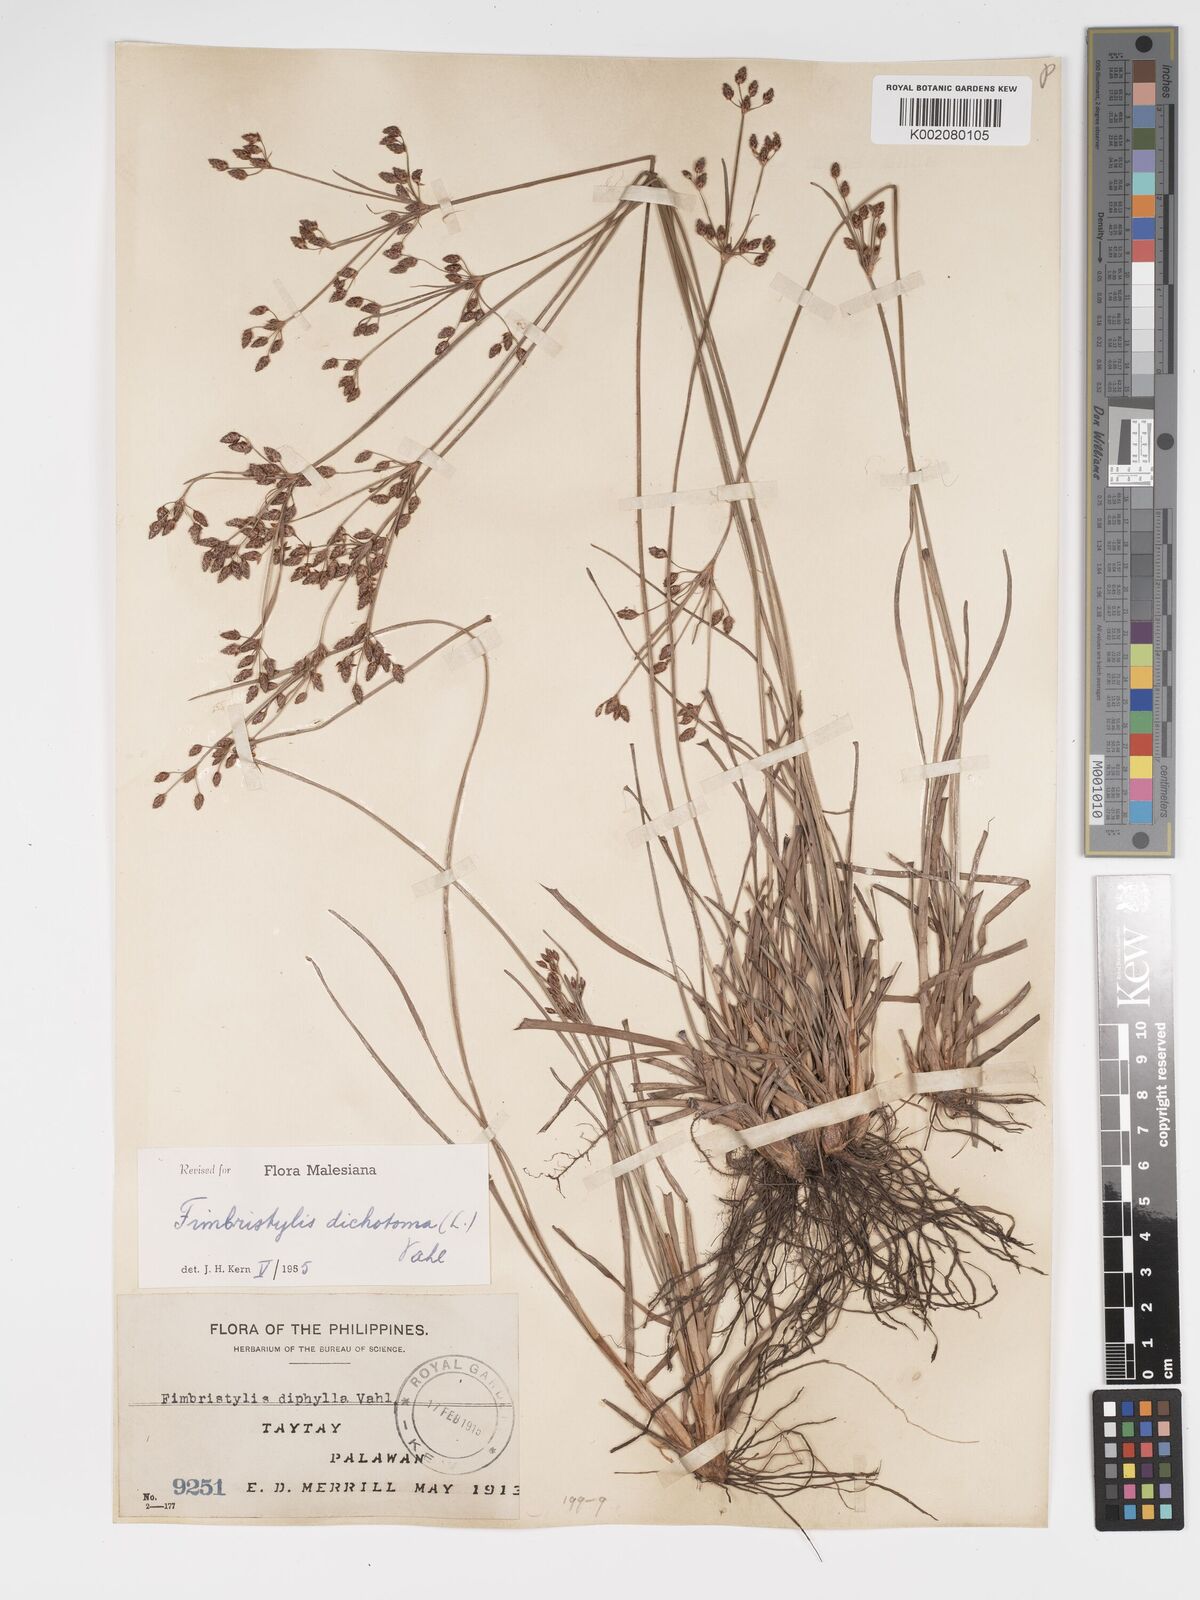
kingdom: Plantae
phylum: Tracheophyta
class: Liliopsida
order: Poales
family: Cyperaceae
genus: Fimbristylis
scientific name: Fimbristylis dichotoma
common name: Forked fimbry
